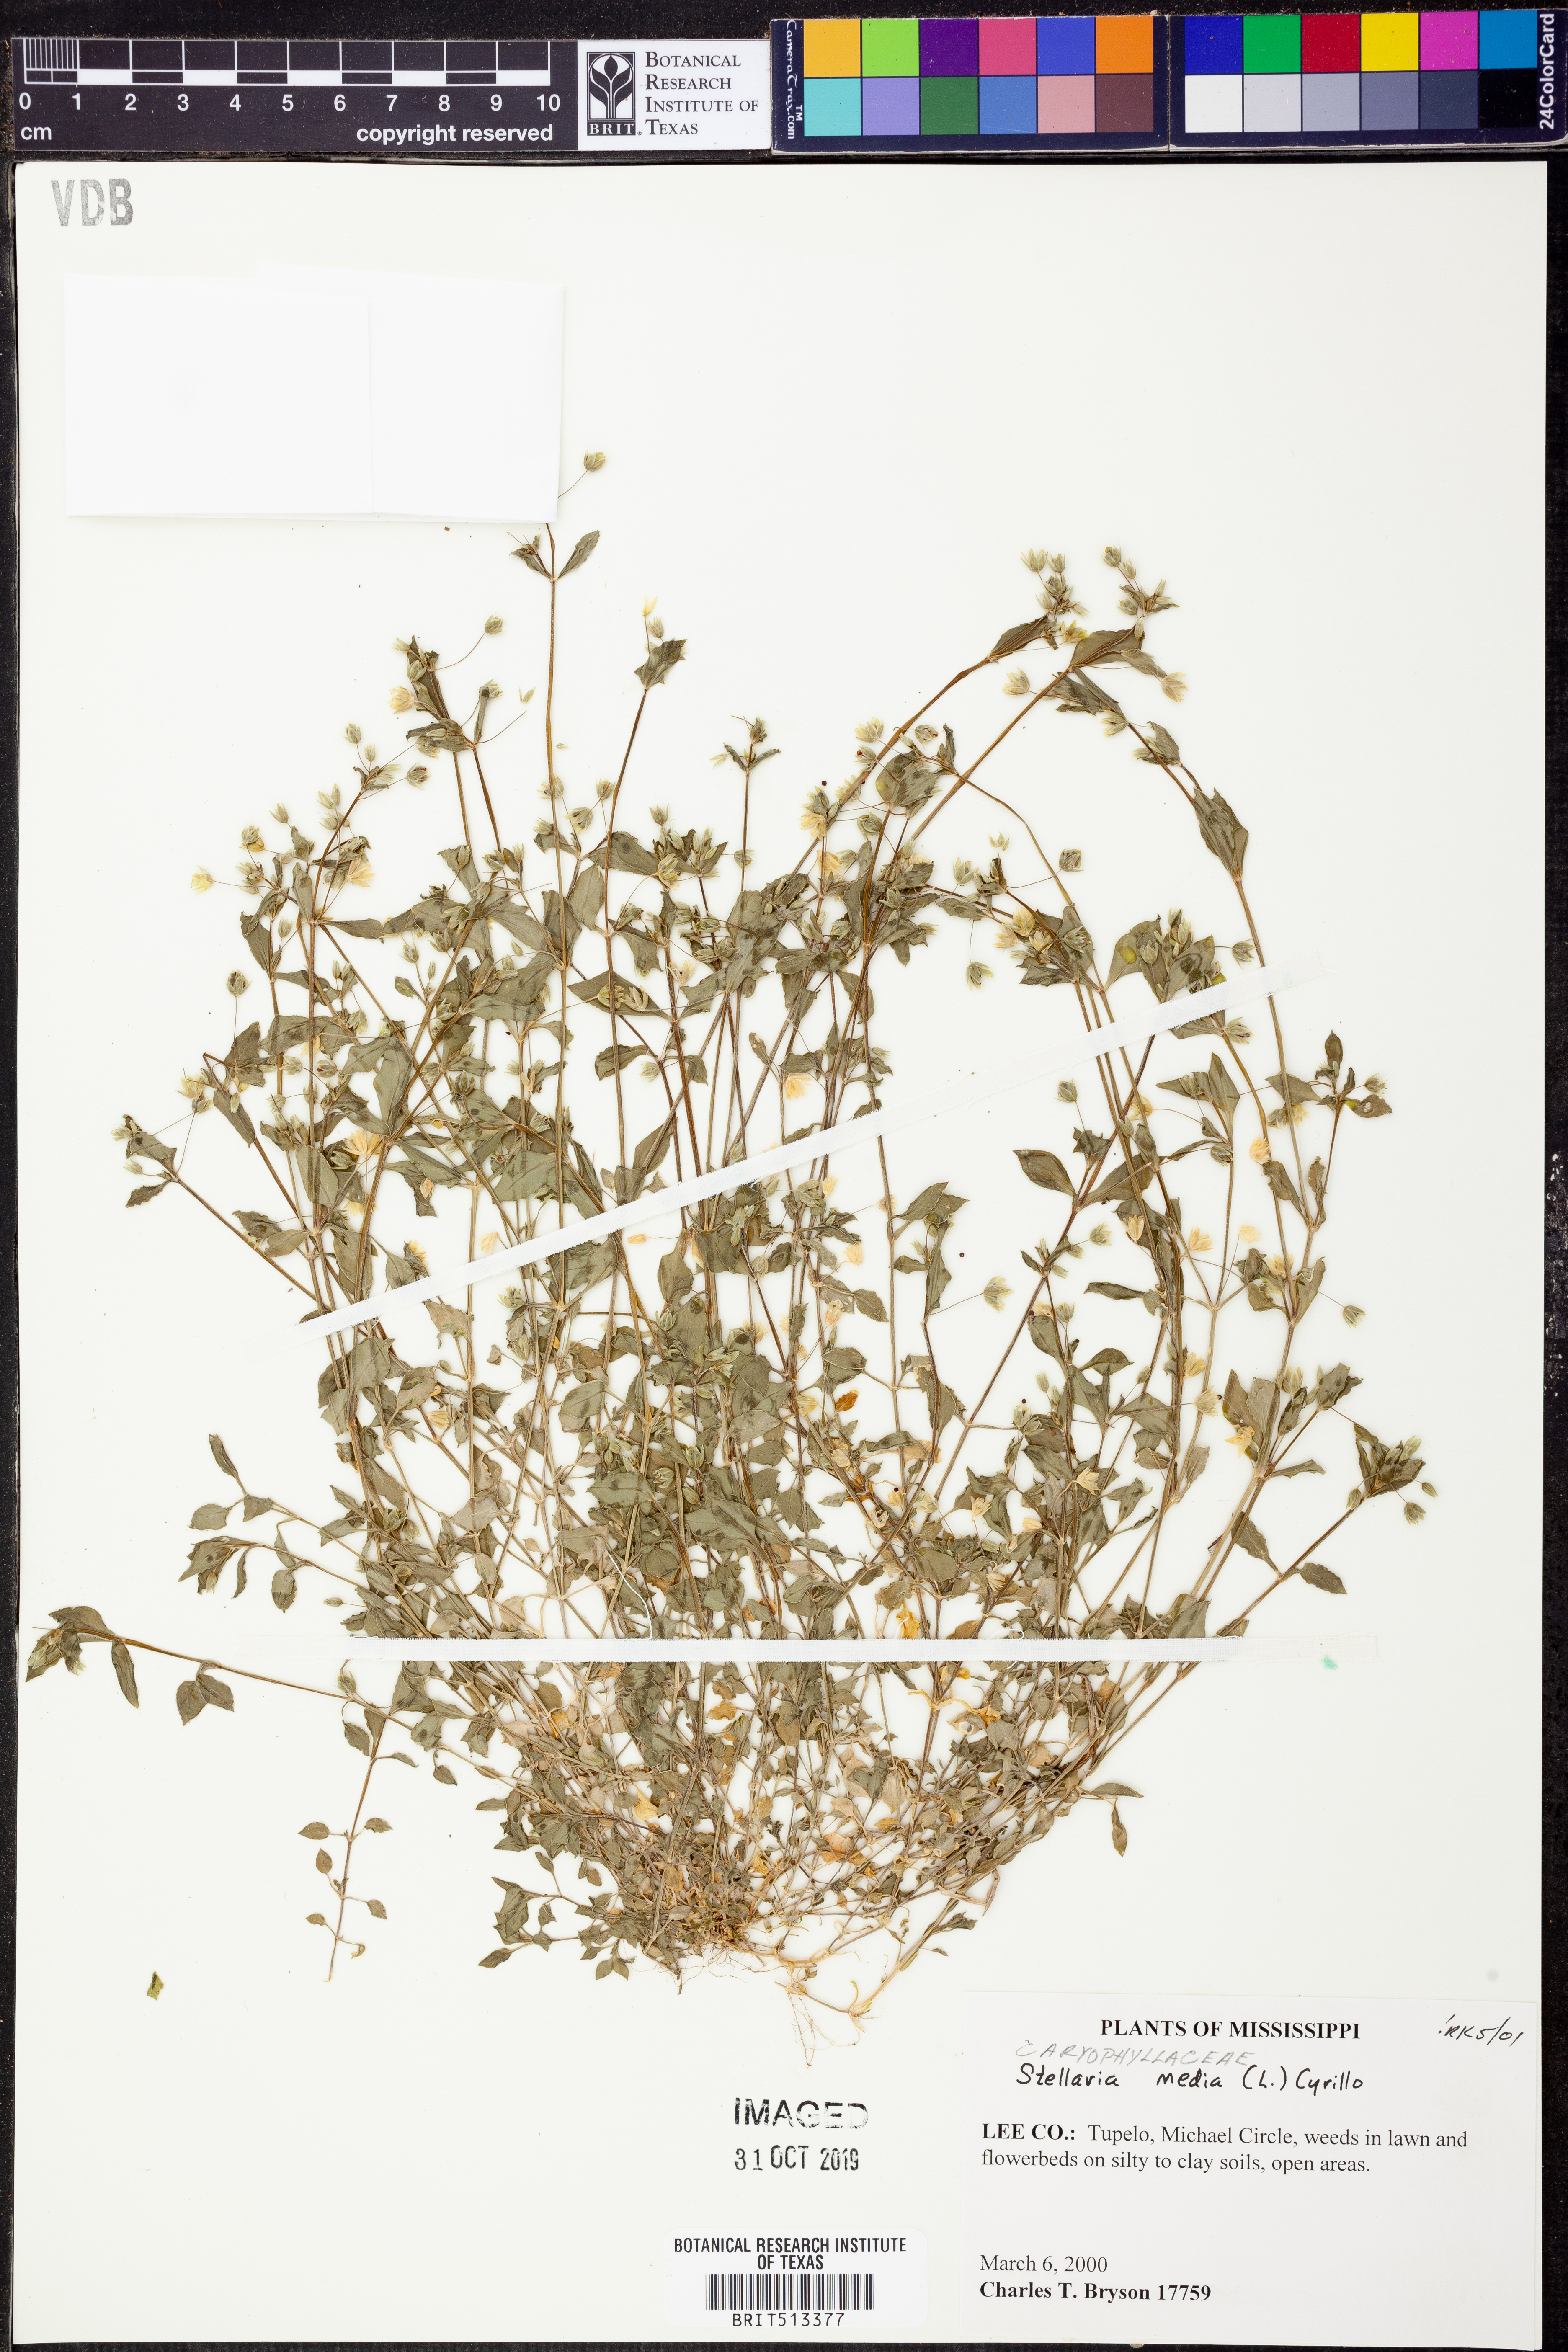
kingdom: Plantae
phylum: Tracheophyta
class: Magnoliopsida
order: Caryophyllales
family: Caryophyllaceae
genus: Stellaria
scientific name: Stellaria media
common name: Common chickweed
